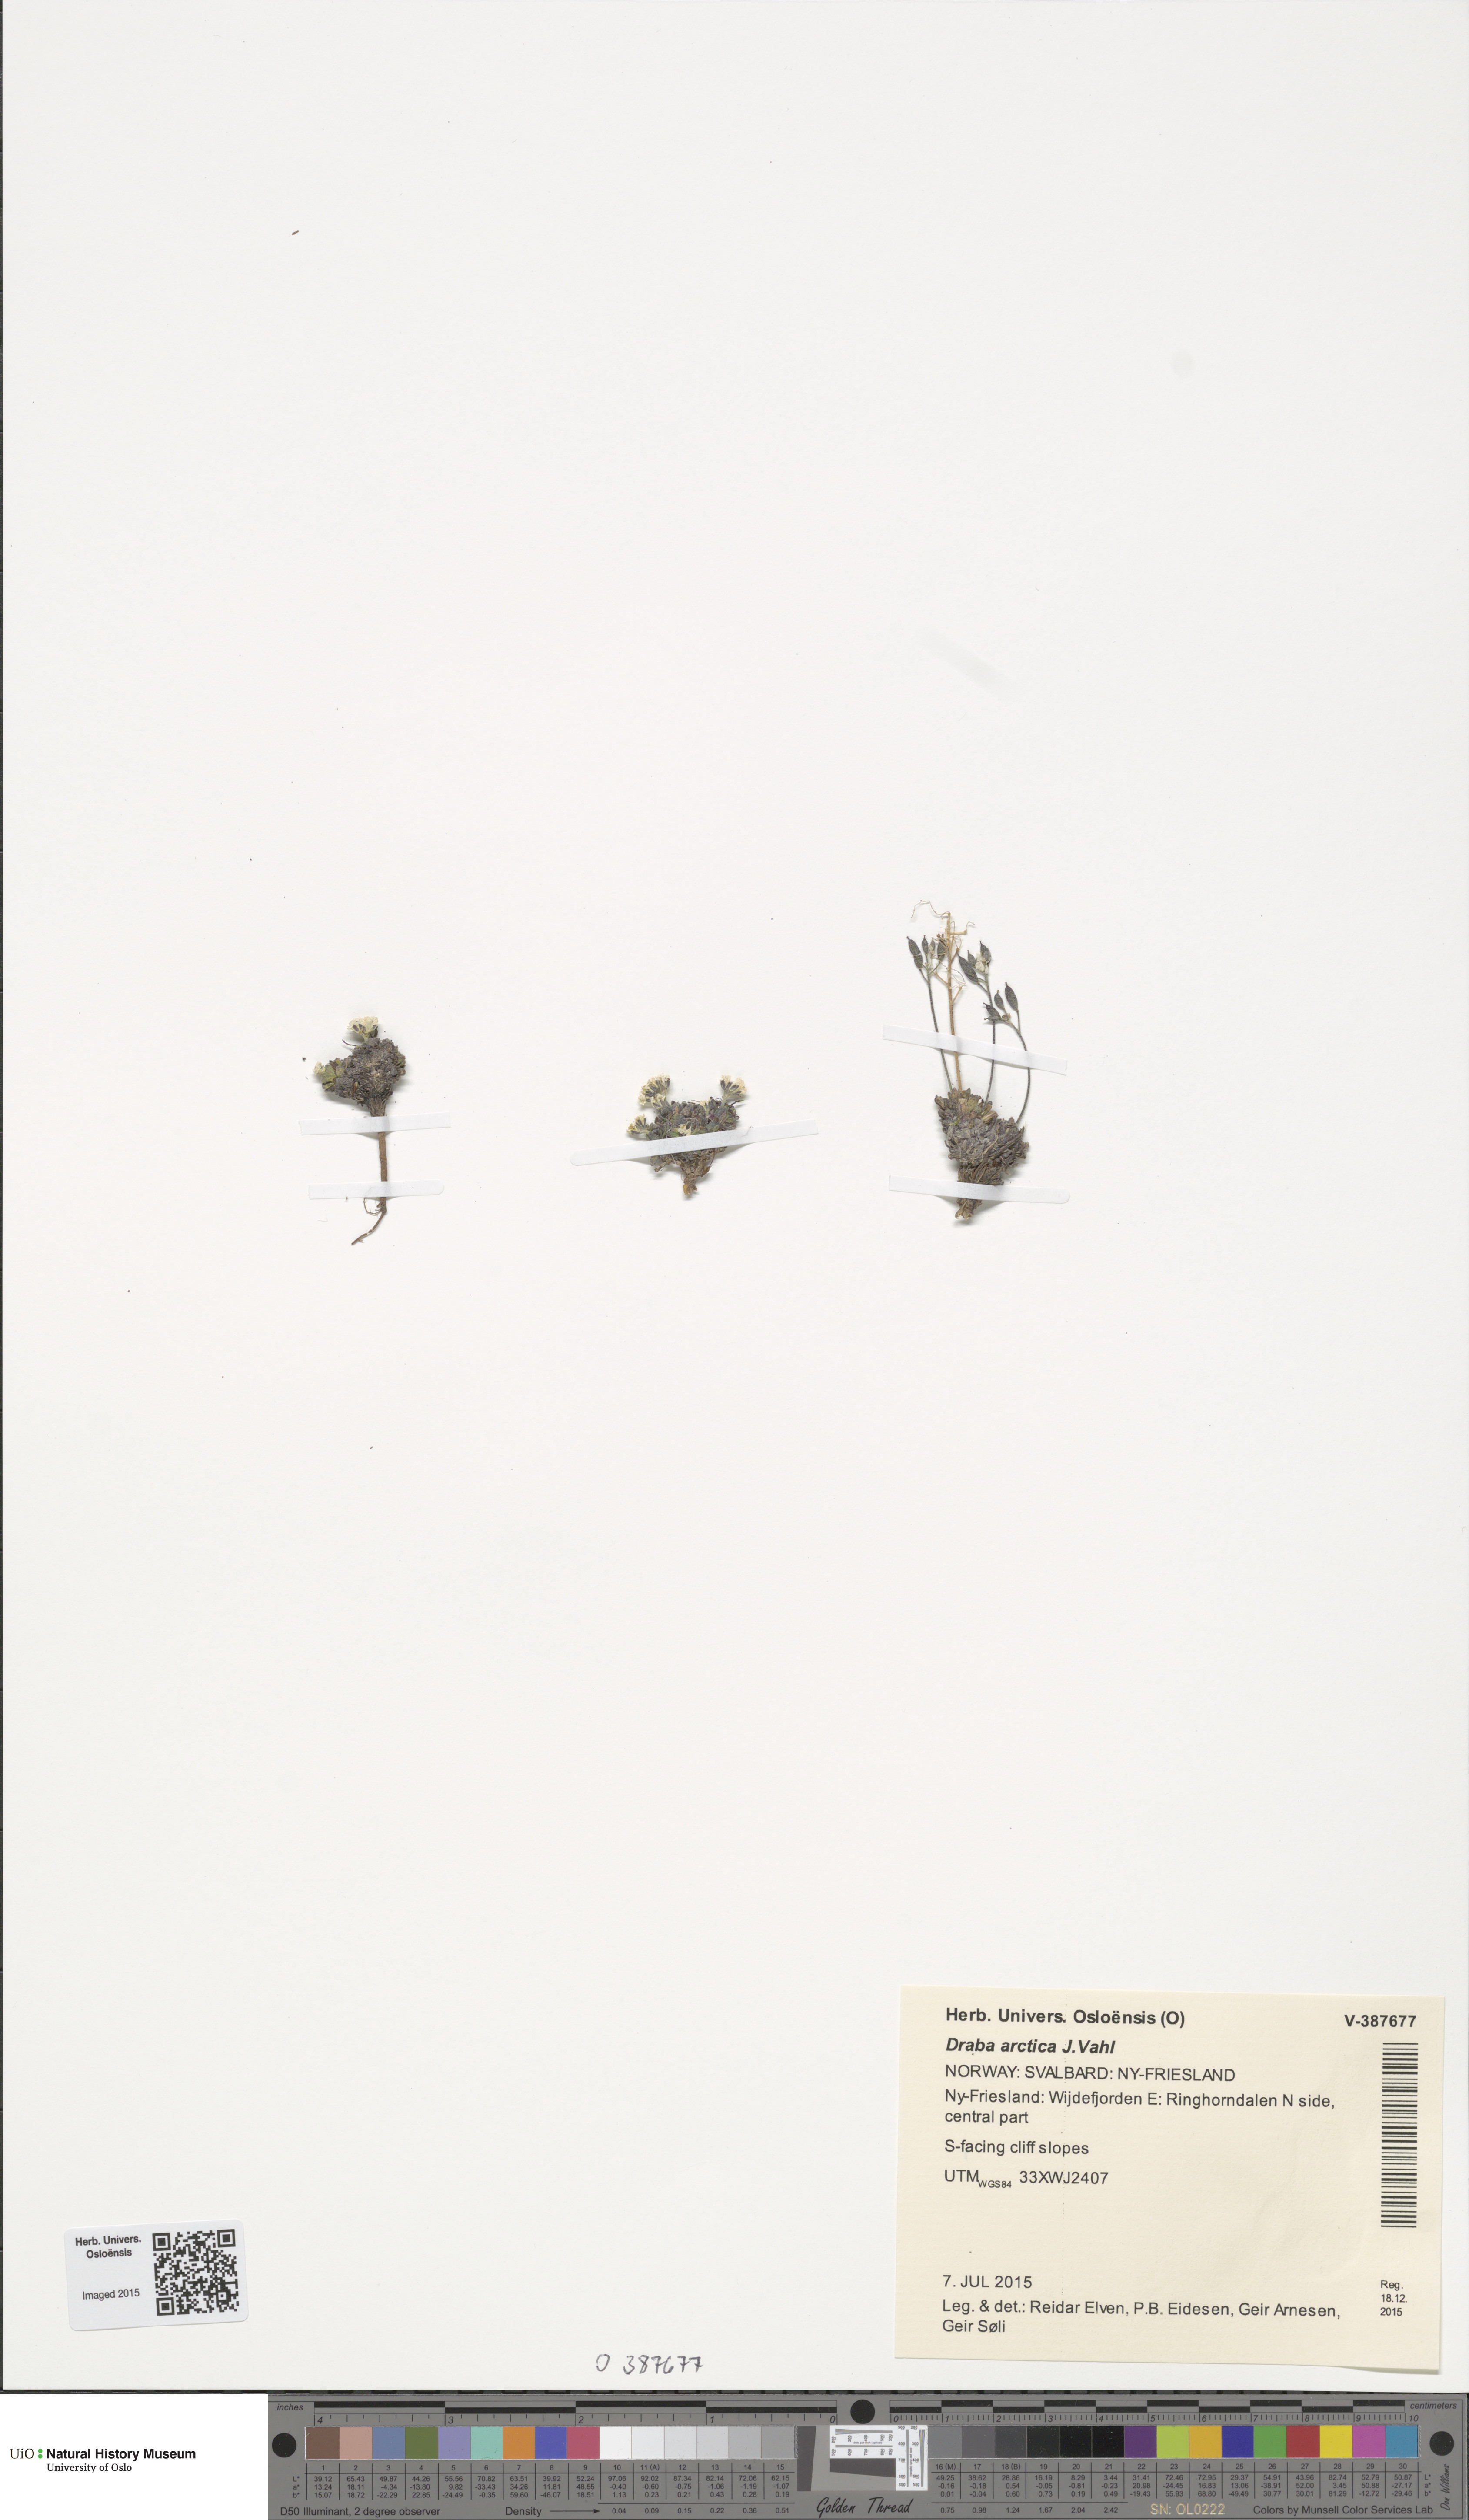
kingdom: Plantae
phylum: Tracheophyta
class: Magnoliopsida
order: Brassicales
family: Brassicaceae
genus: Draba
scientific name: Draba arctica
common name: Arctic draba
